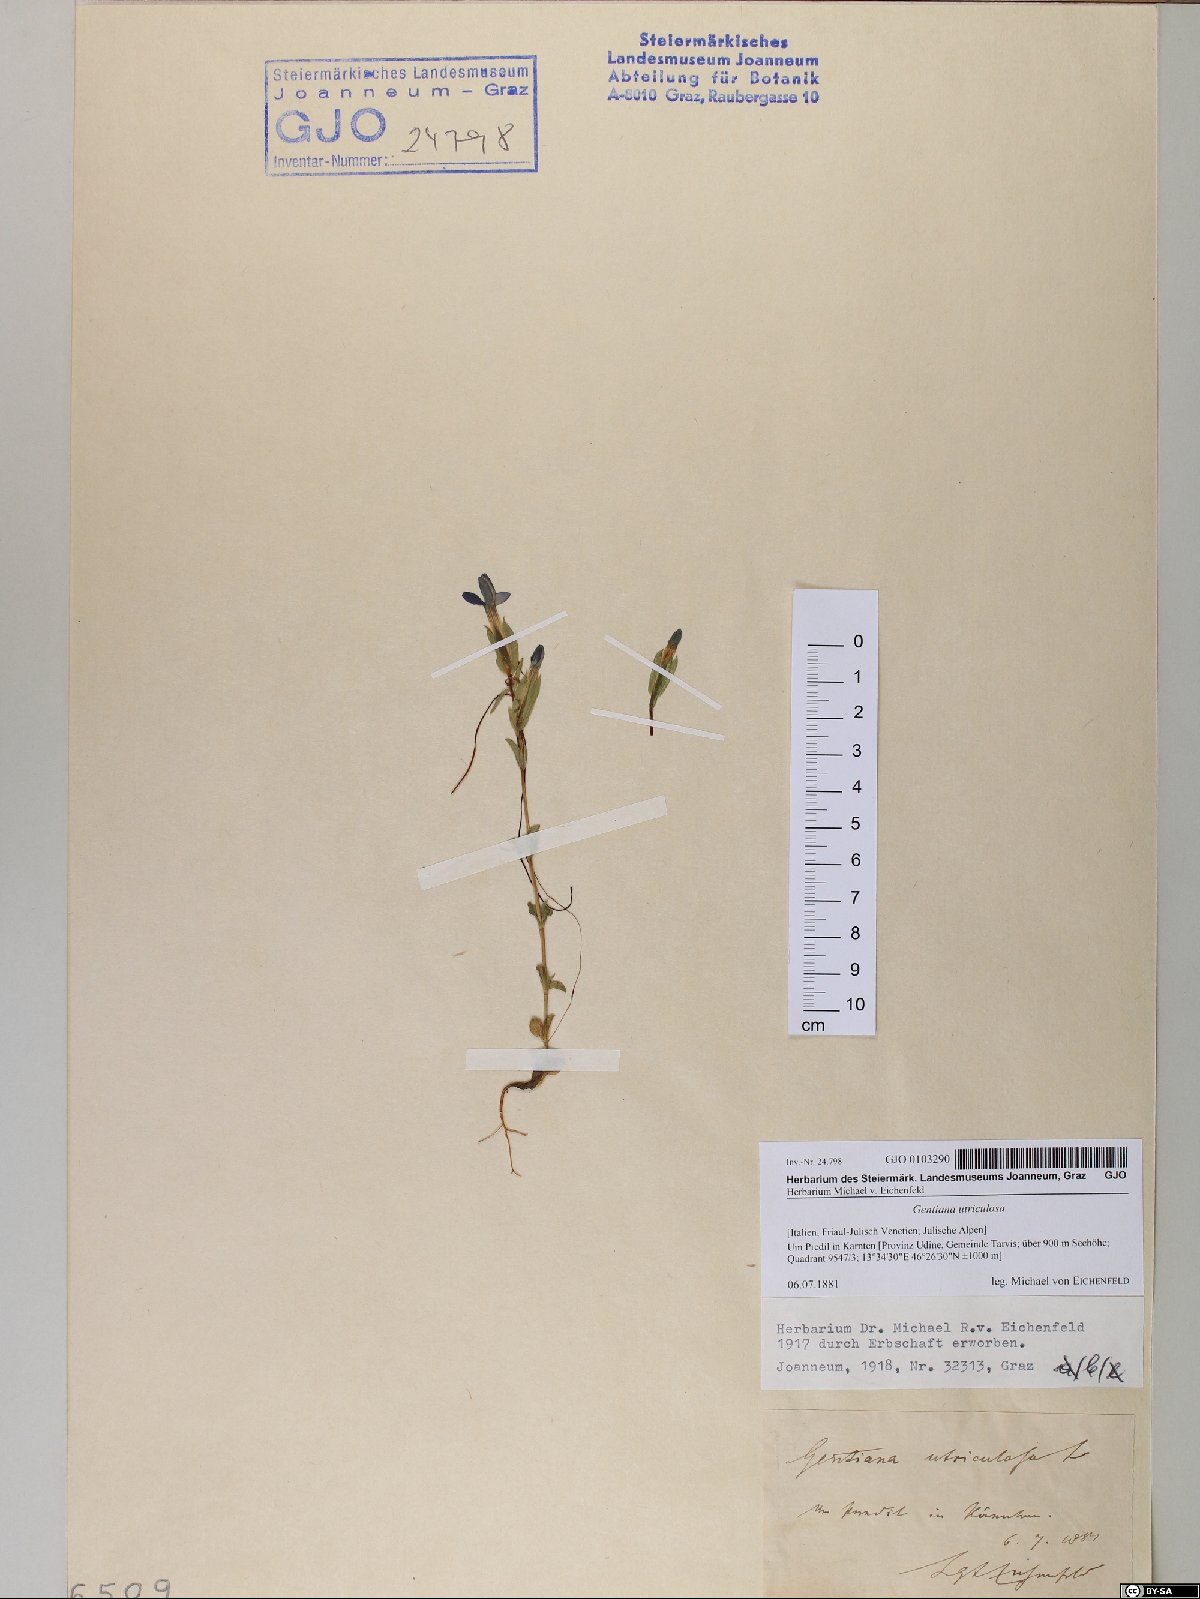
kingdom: Plantae
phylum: Tracheophyta
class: Magnoliopsida
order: Gentianales
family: Gentianaceae
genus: Gentiana
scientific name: Gentiana utriculosa
